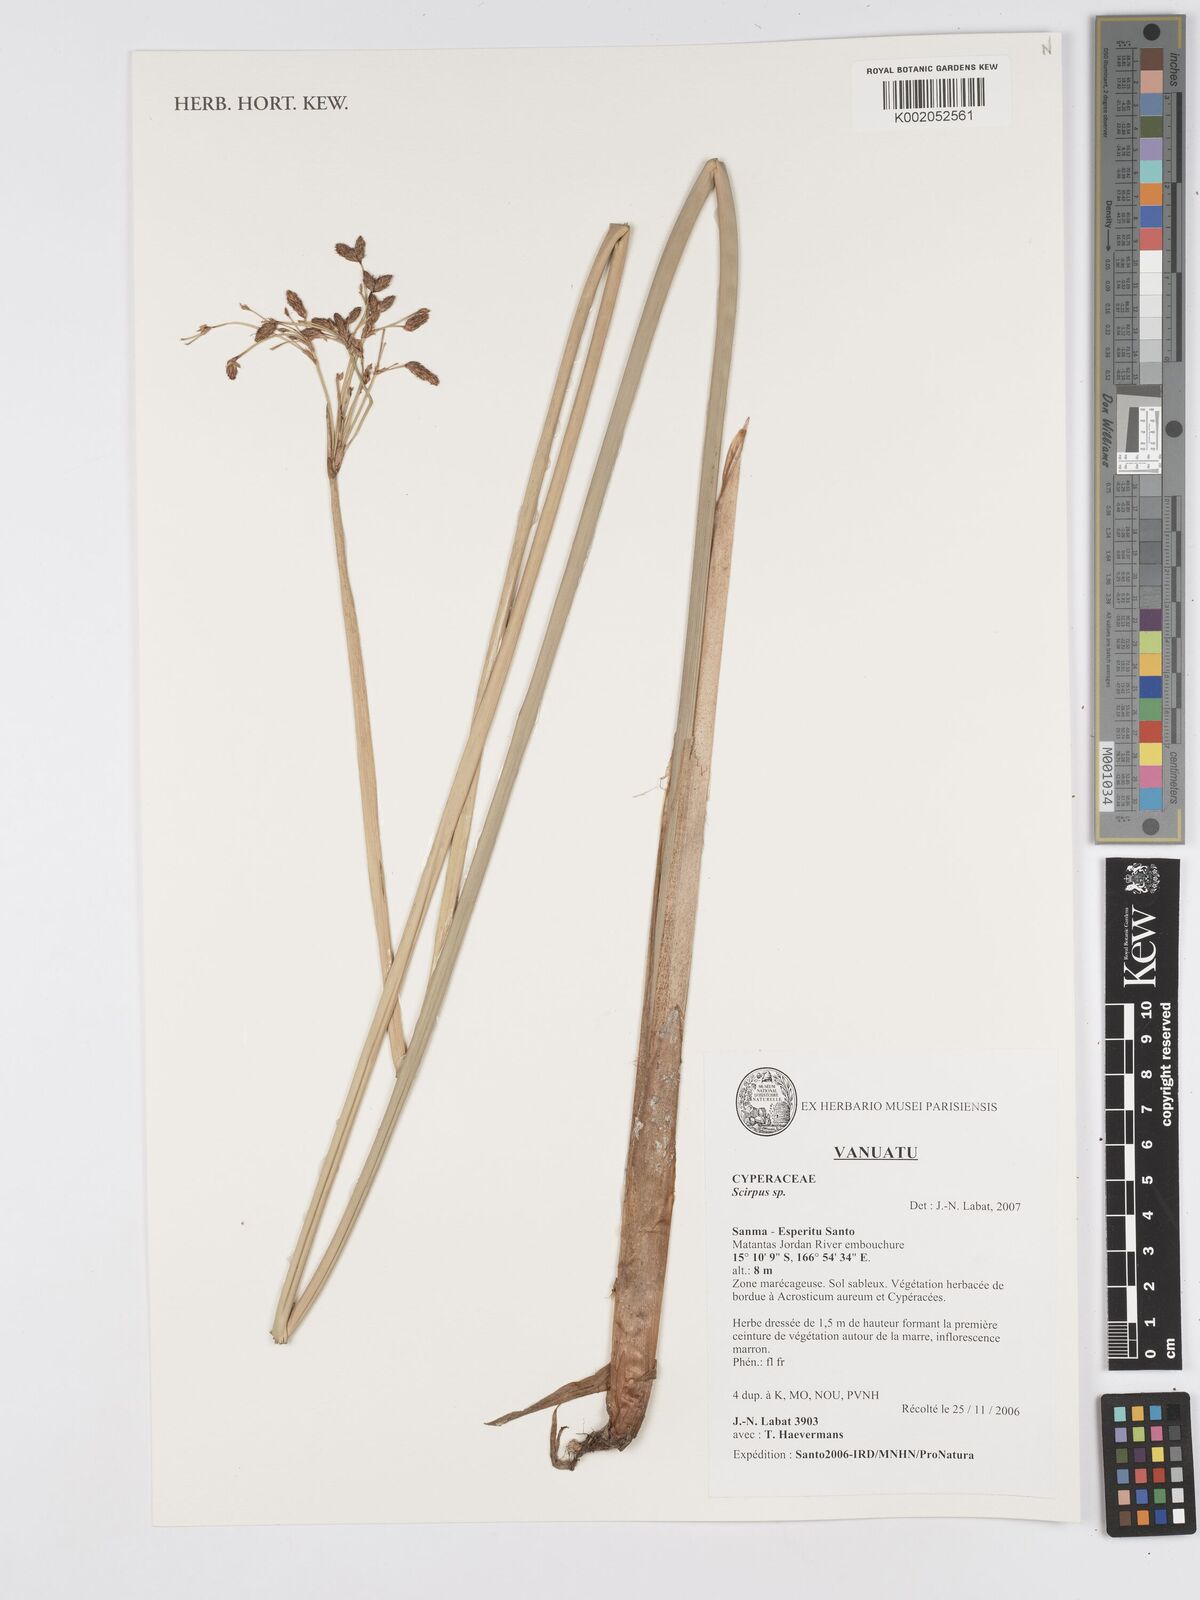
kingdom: Plantae
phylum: Tracheophyta
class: Liliopsida
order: Poales
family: Cyperaceae
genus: Scirpus
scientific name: Scirpus
